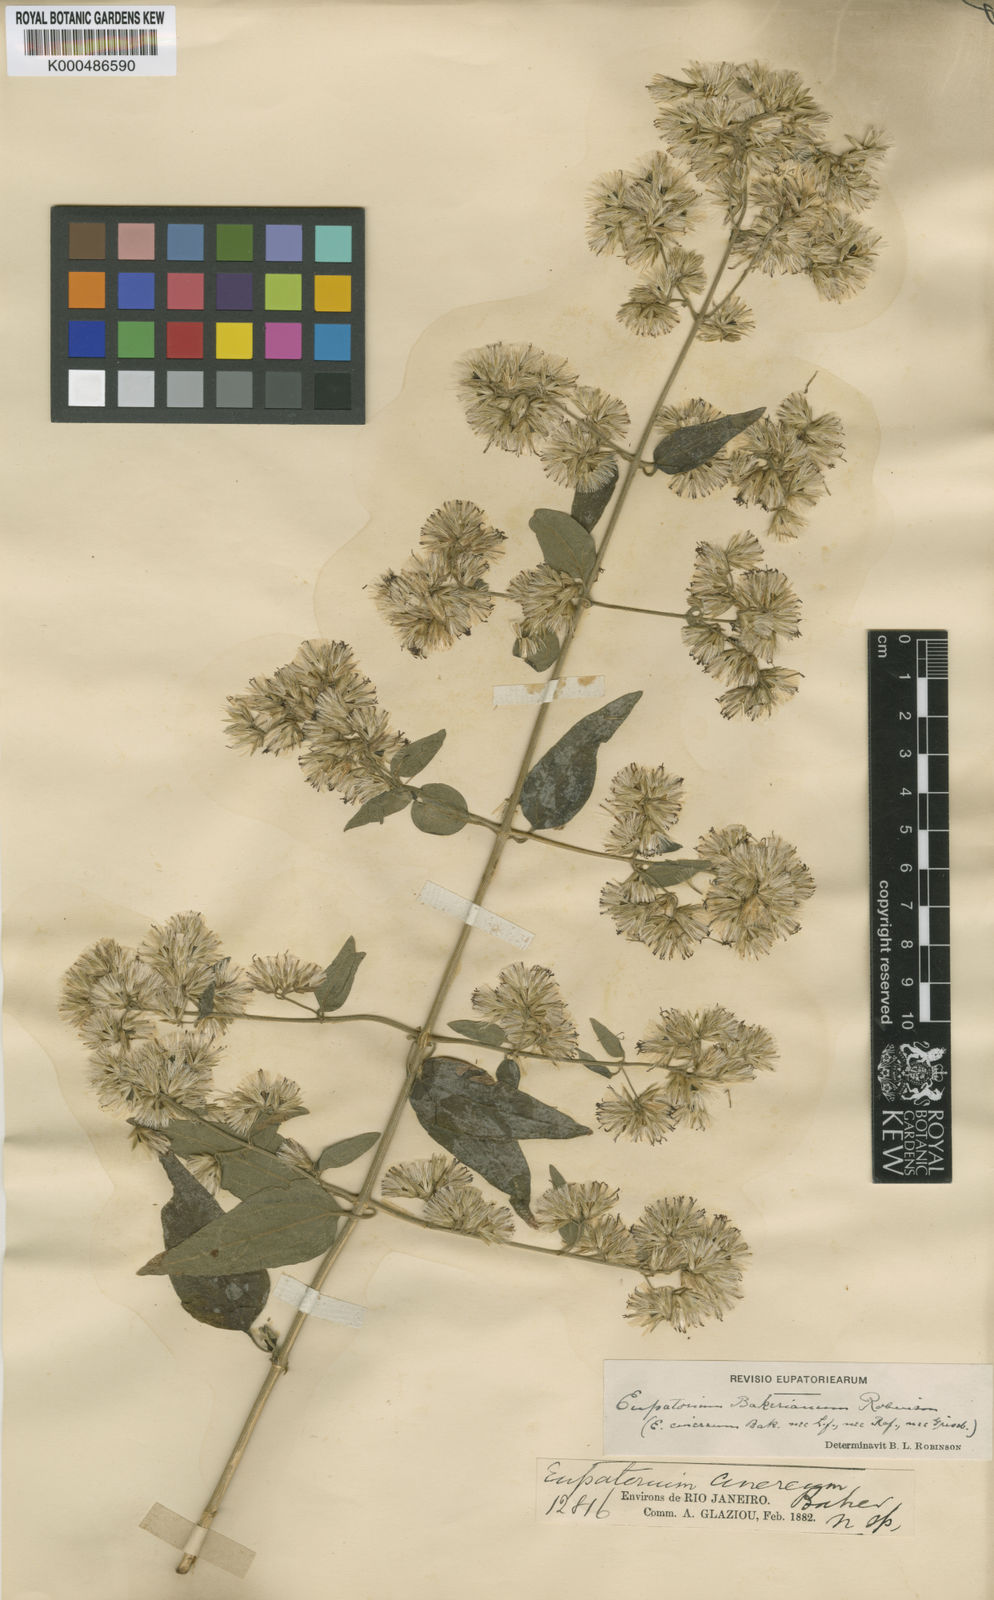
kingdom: Plantae
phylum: Tracheophyta
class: Magnoliopsida
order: Asterales
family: Asteraceae
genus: Austrobrickellia
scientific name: Austrobrickellia bakerianum
